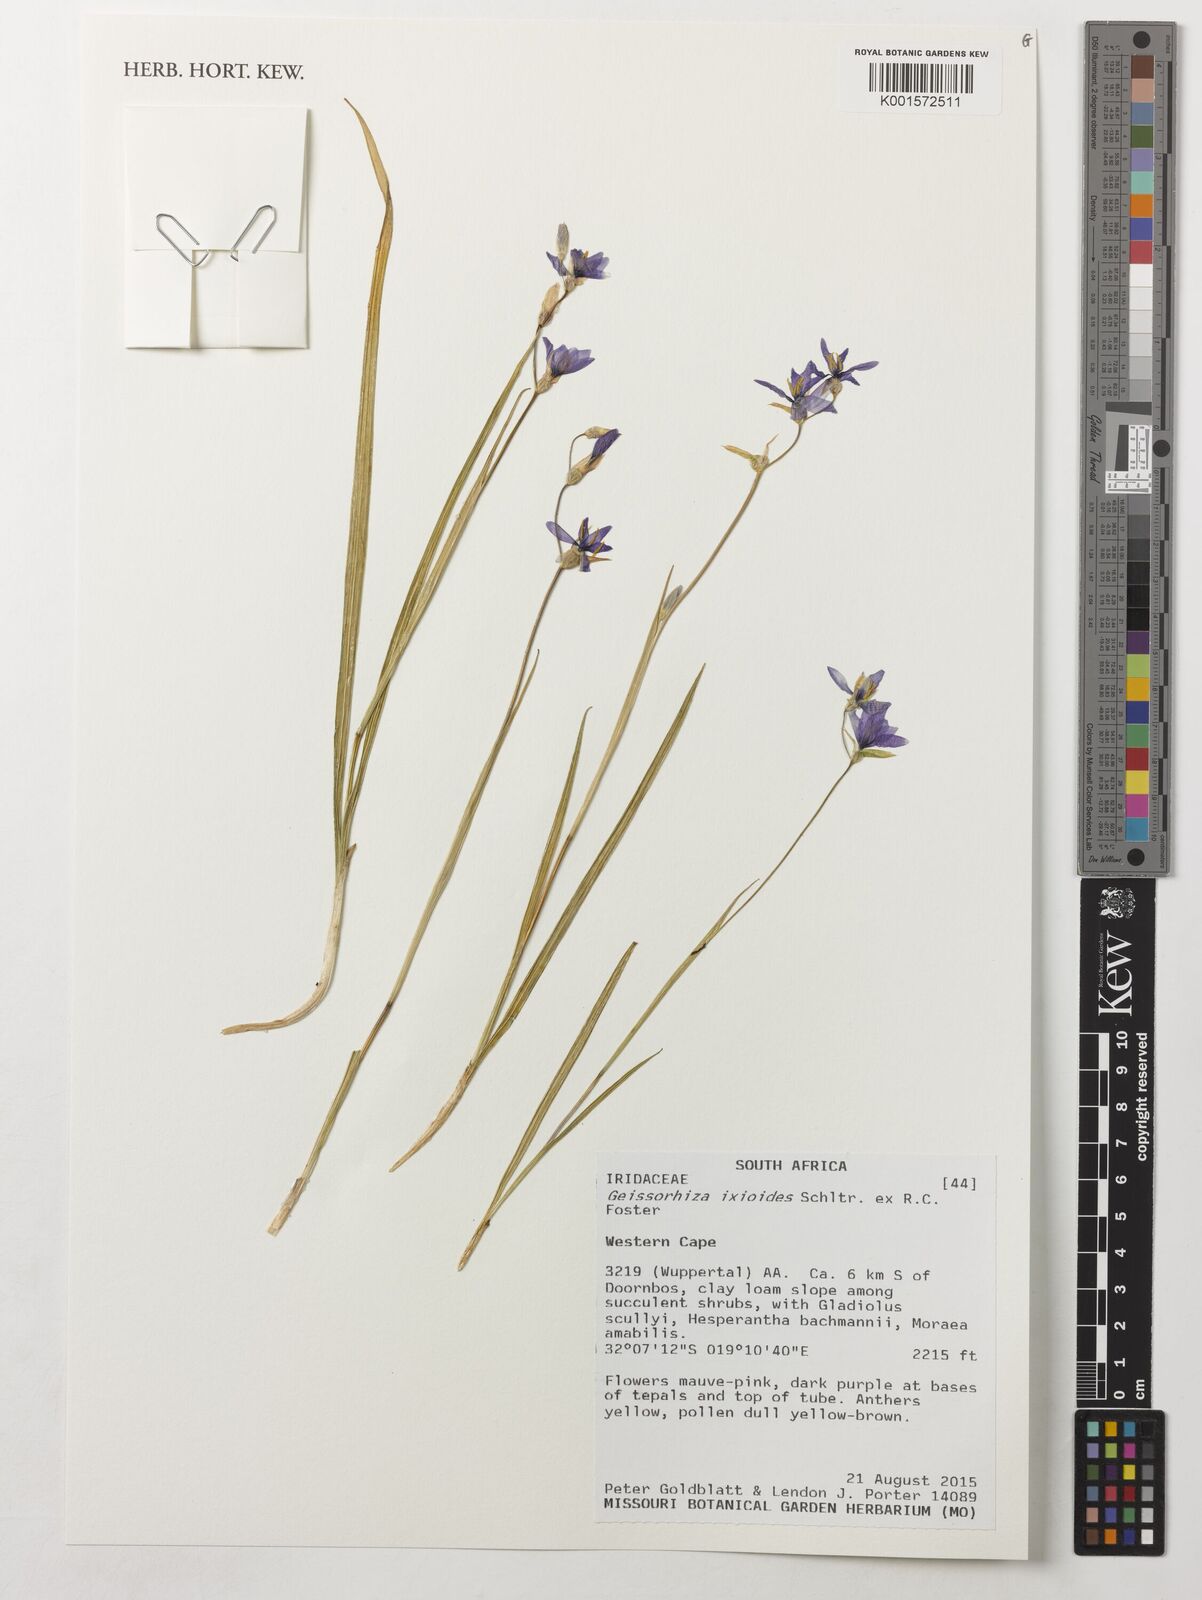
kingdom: Plantae
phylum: Tracheophyta
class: Liliopsida
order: Asparagales
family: Iridaceae
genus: Geissorhiza
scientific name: Geissorhiza ixioides
